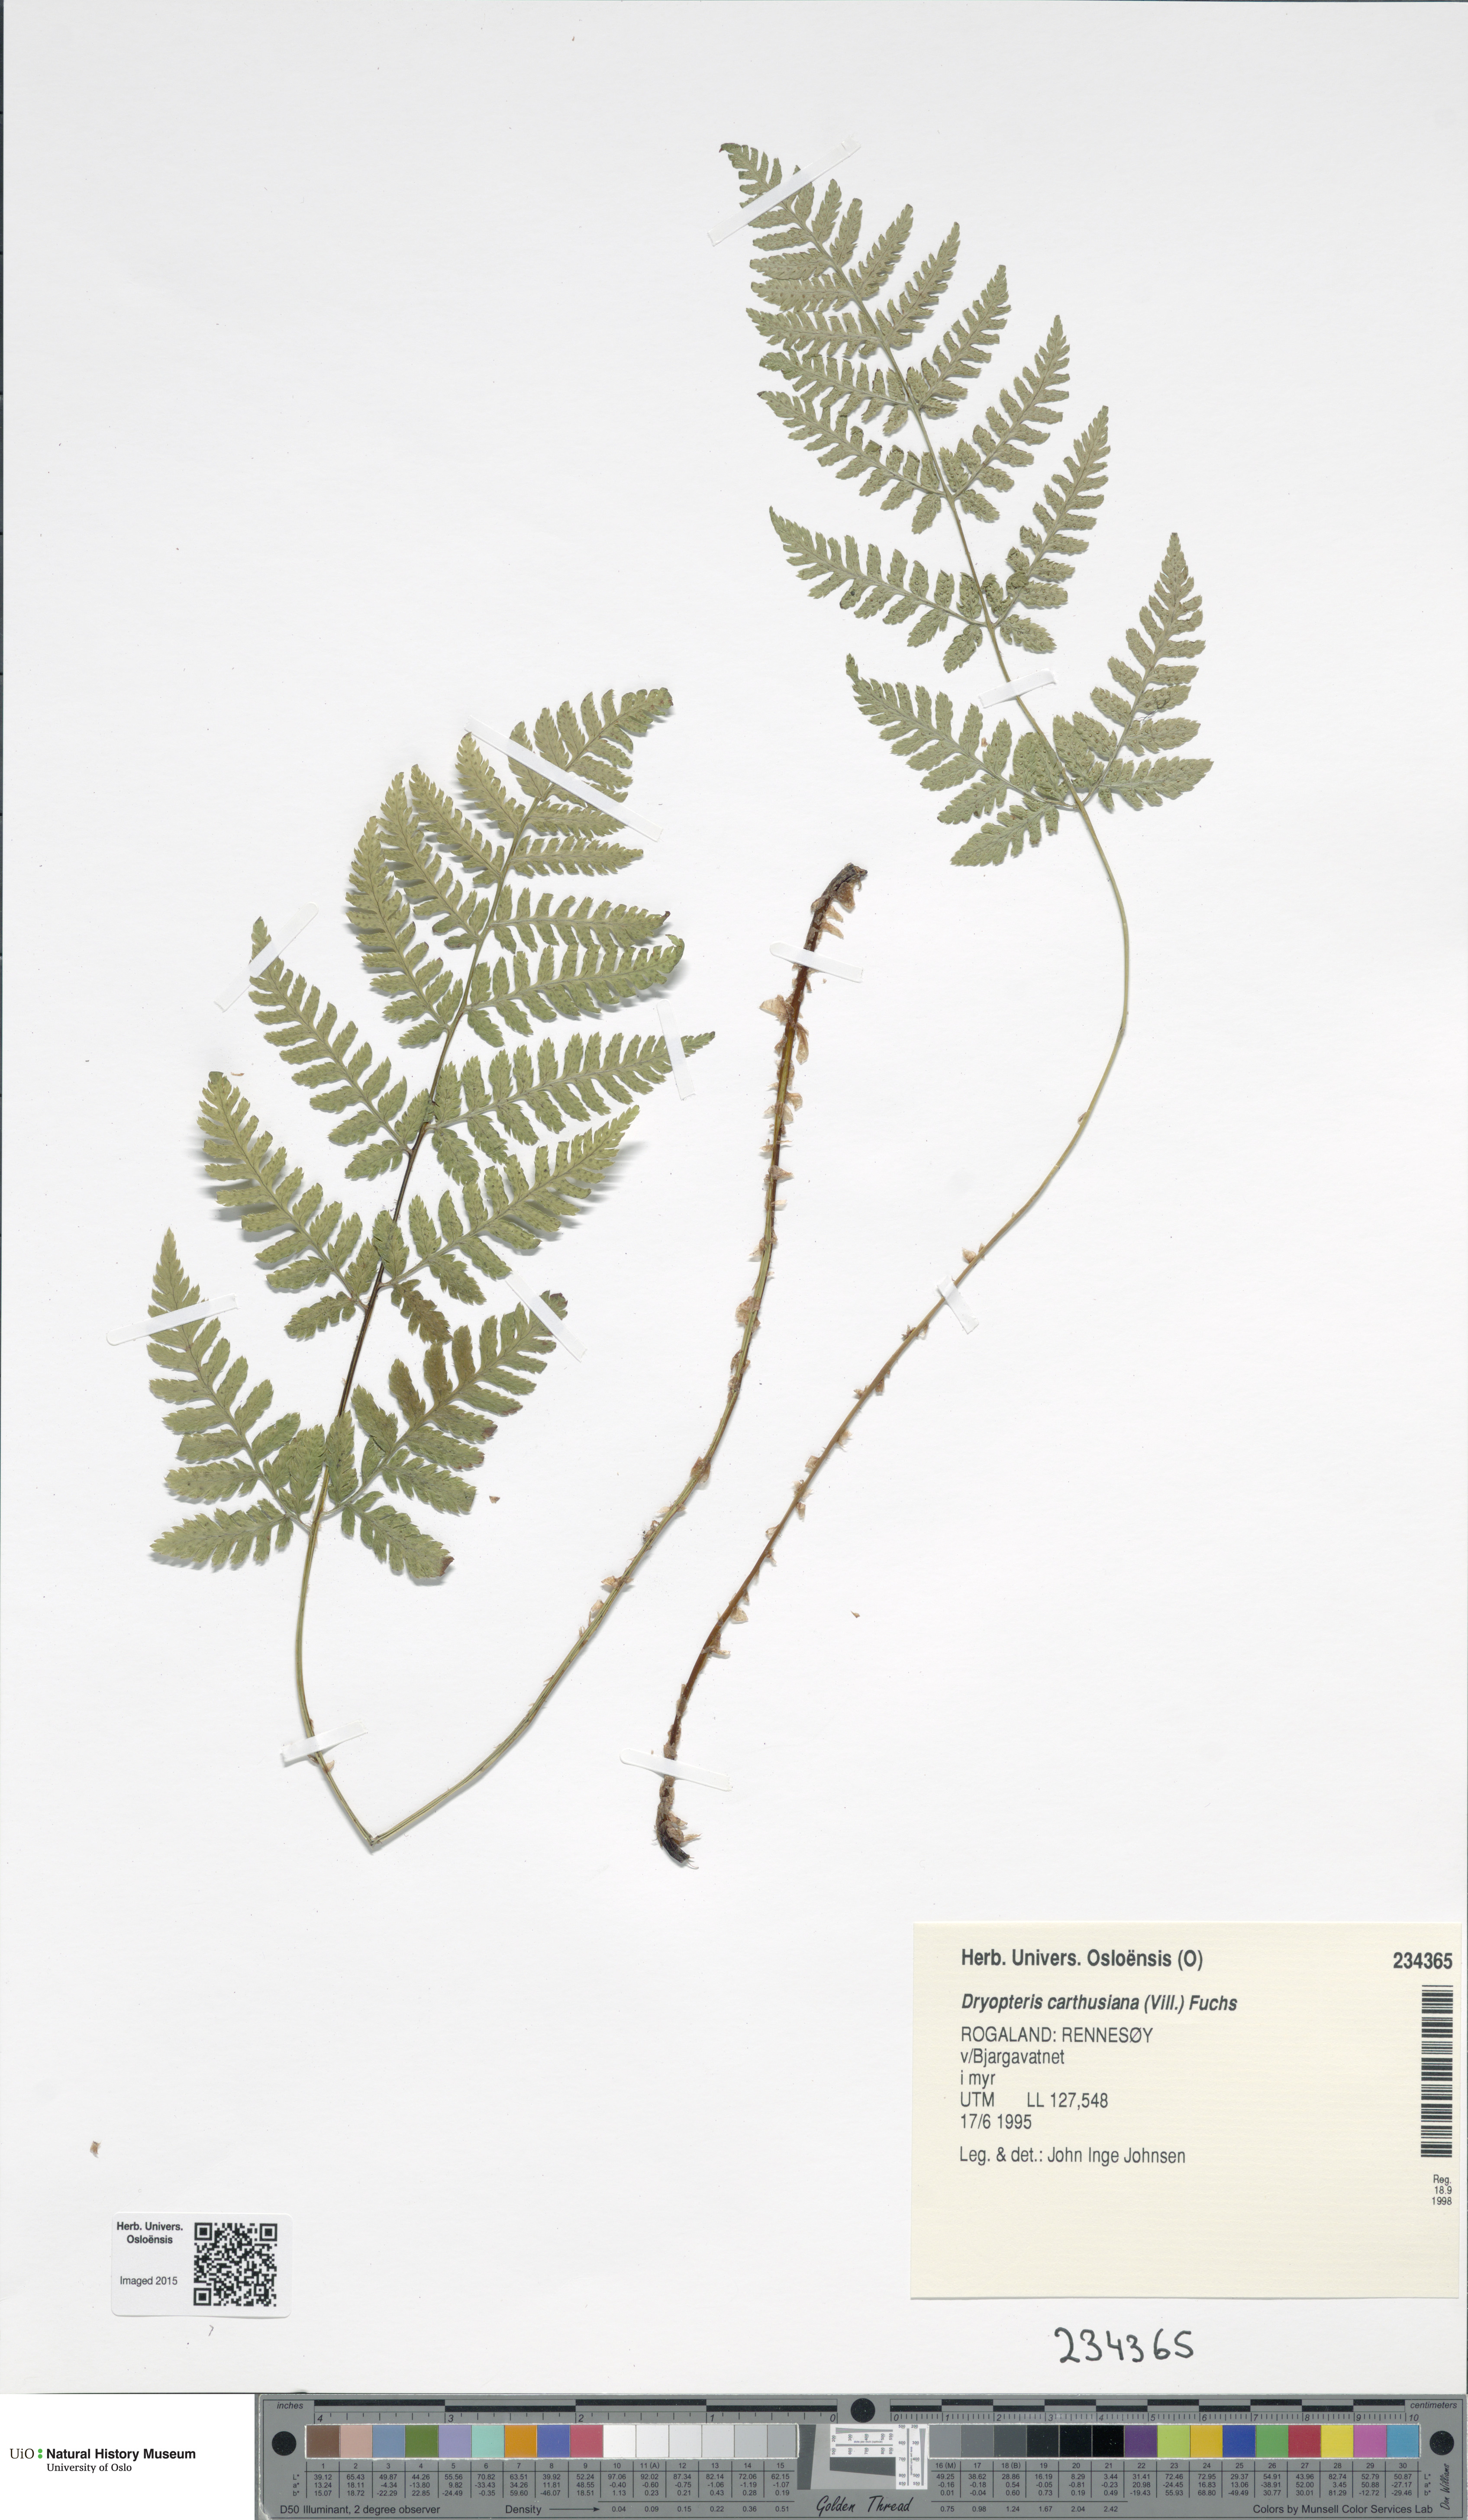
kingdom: Plantae
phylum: Tracheophyta
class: Polypodiopsida
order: Polypodiales
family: Dryopteridaceae
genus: Dryopteris
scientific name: Dryopteris carthusiana
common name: Narrow buckler-fern
